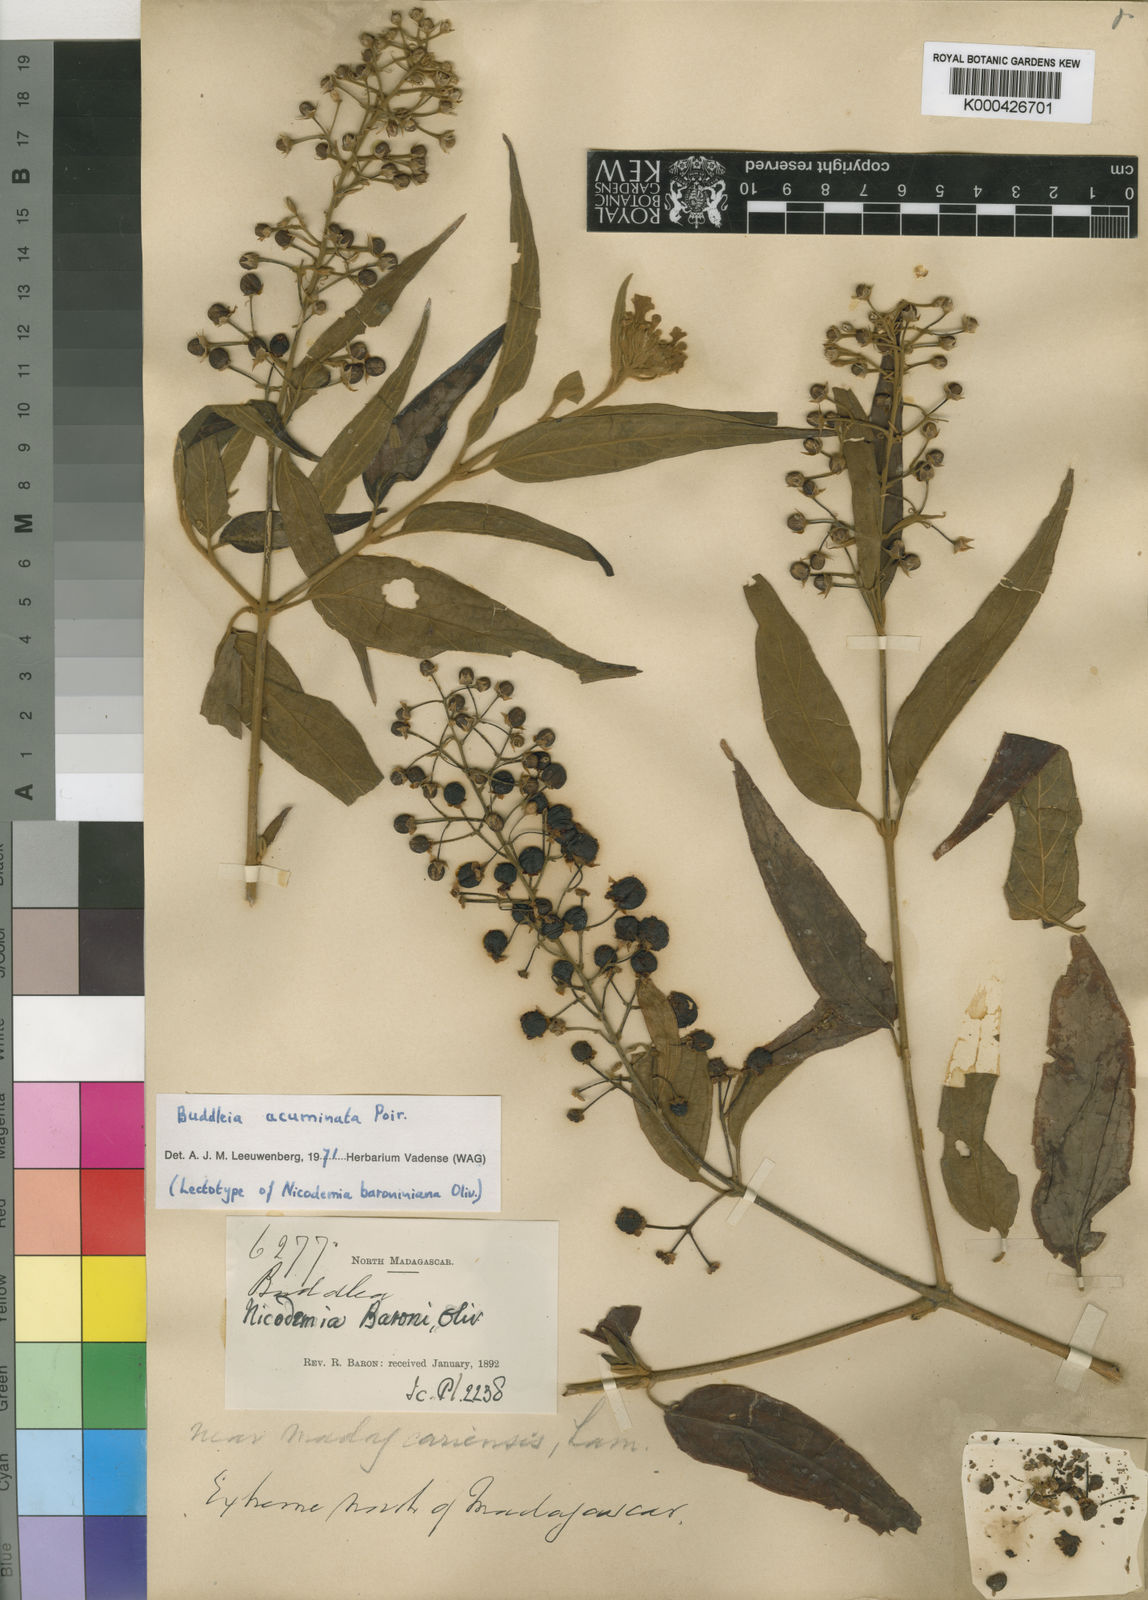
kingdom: Plantae
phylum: Tracheophyta
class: Magnoliopsida
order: Lamiales
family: Scrophulariaceae
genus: Buddleja
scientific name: Buddleja acuminata
